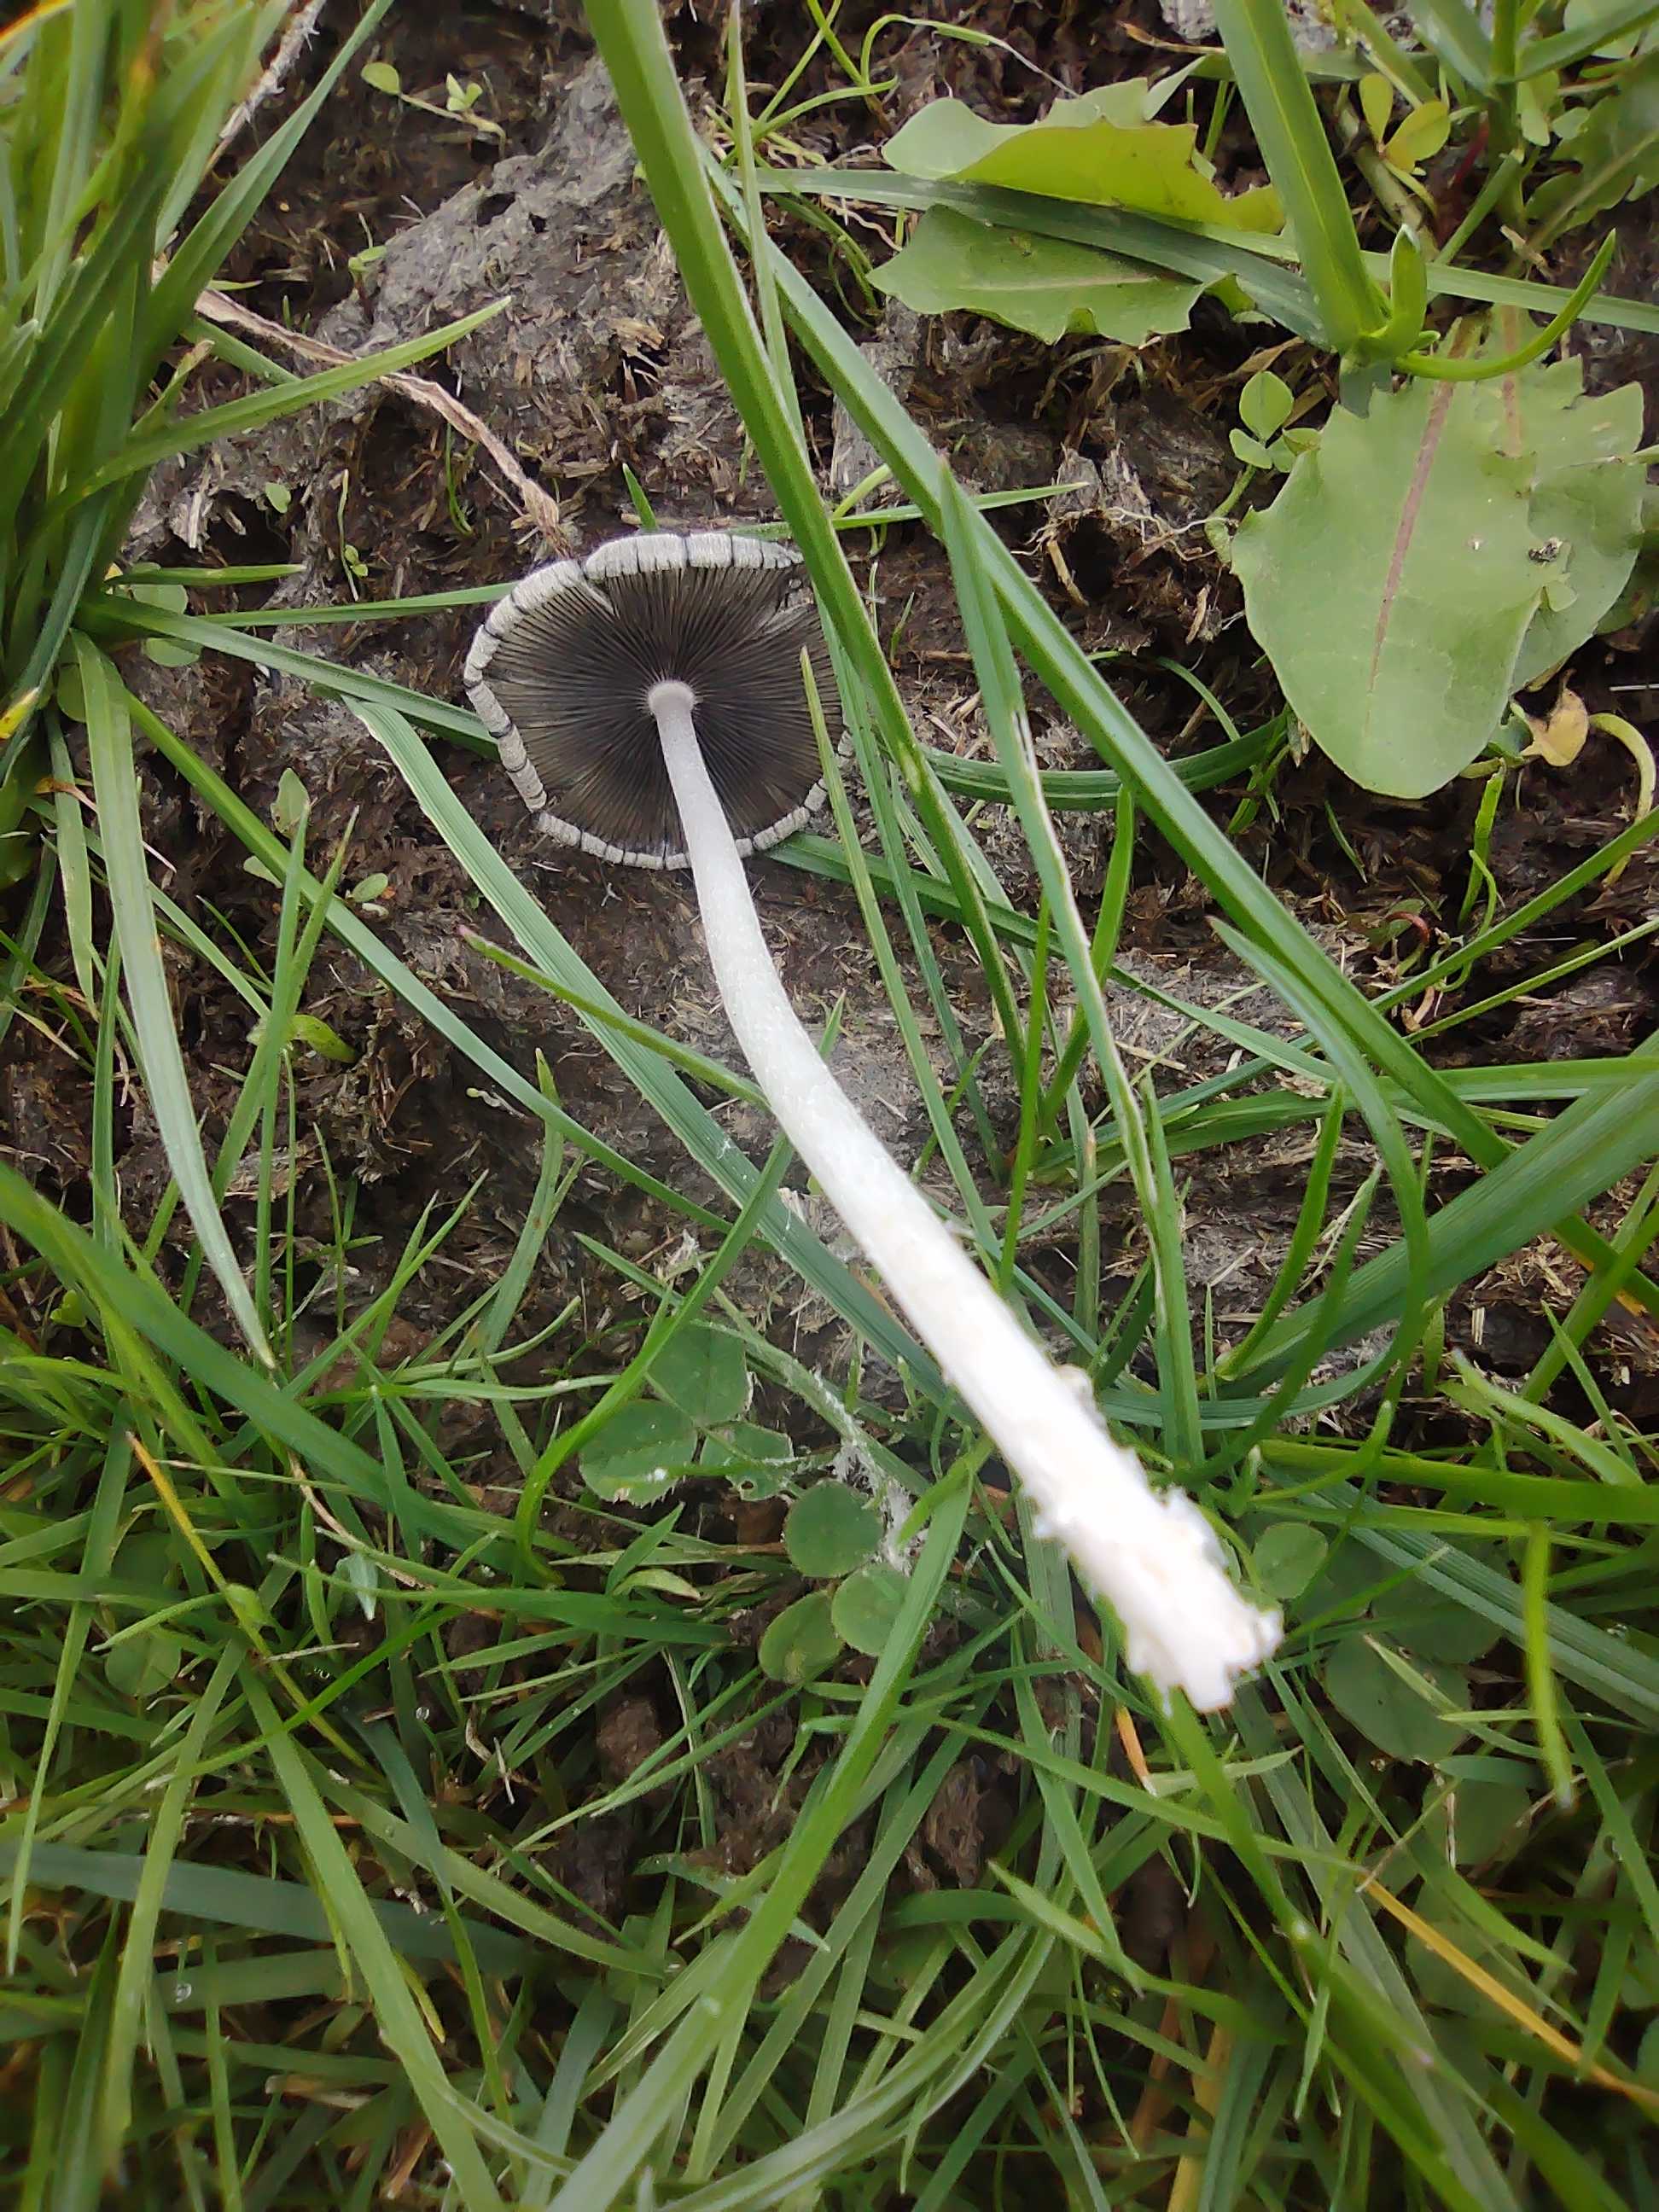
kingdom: Fungi
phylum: Basidiomycota
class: Agaricomycetes
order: Agaricales
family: Psathyrellaceae
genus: Coprinopsis
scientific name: Coprinopsis
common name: blækhat
